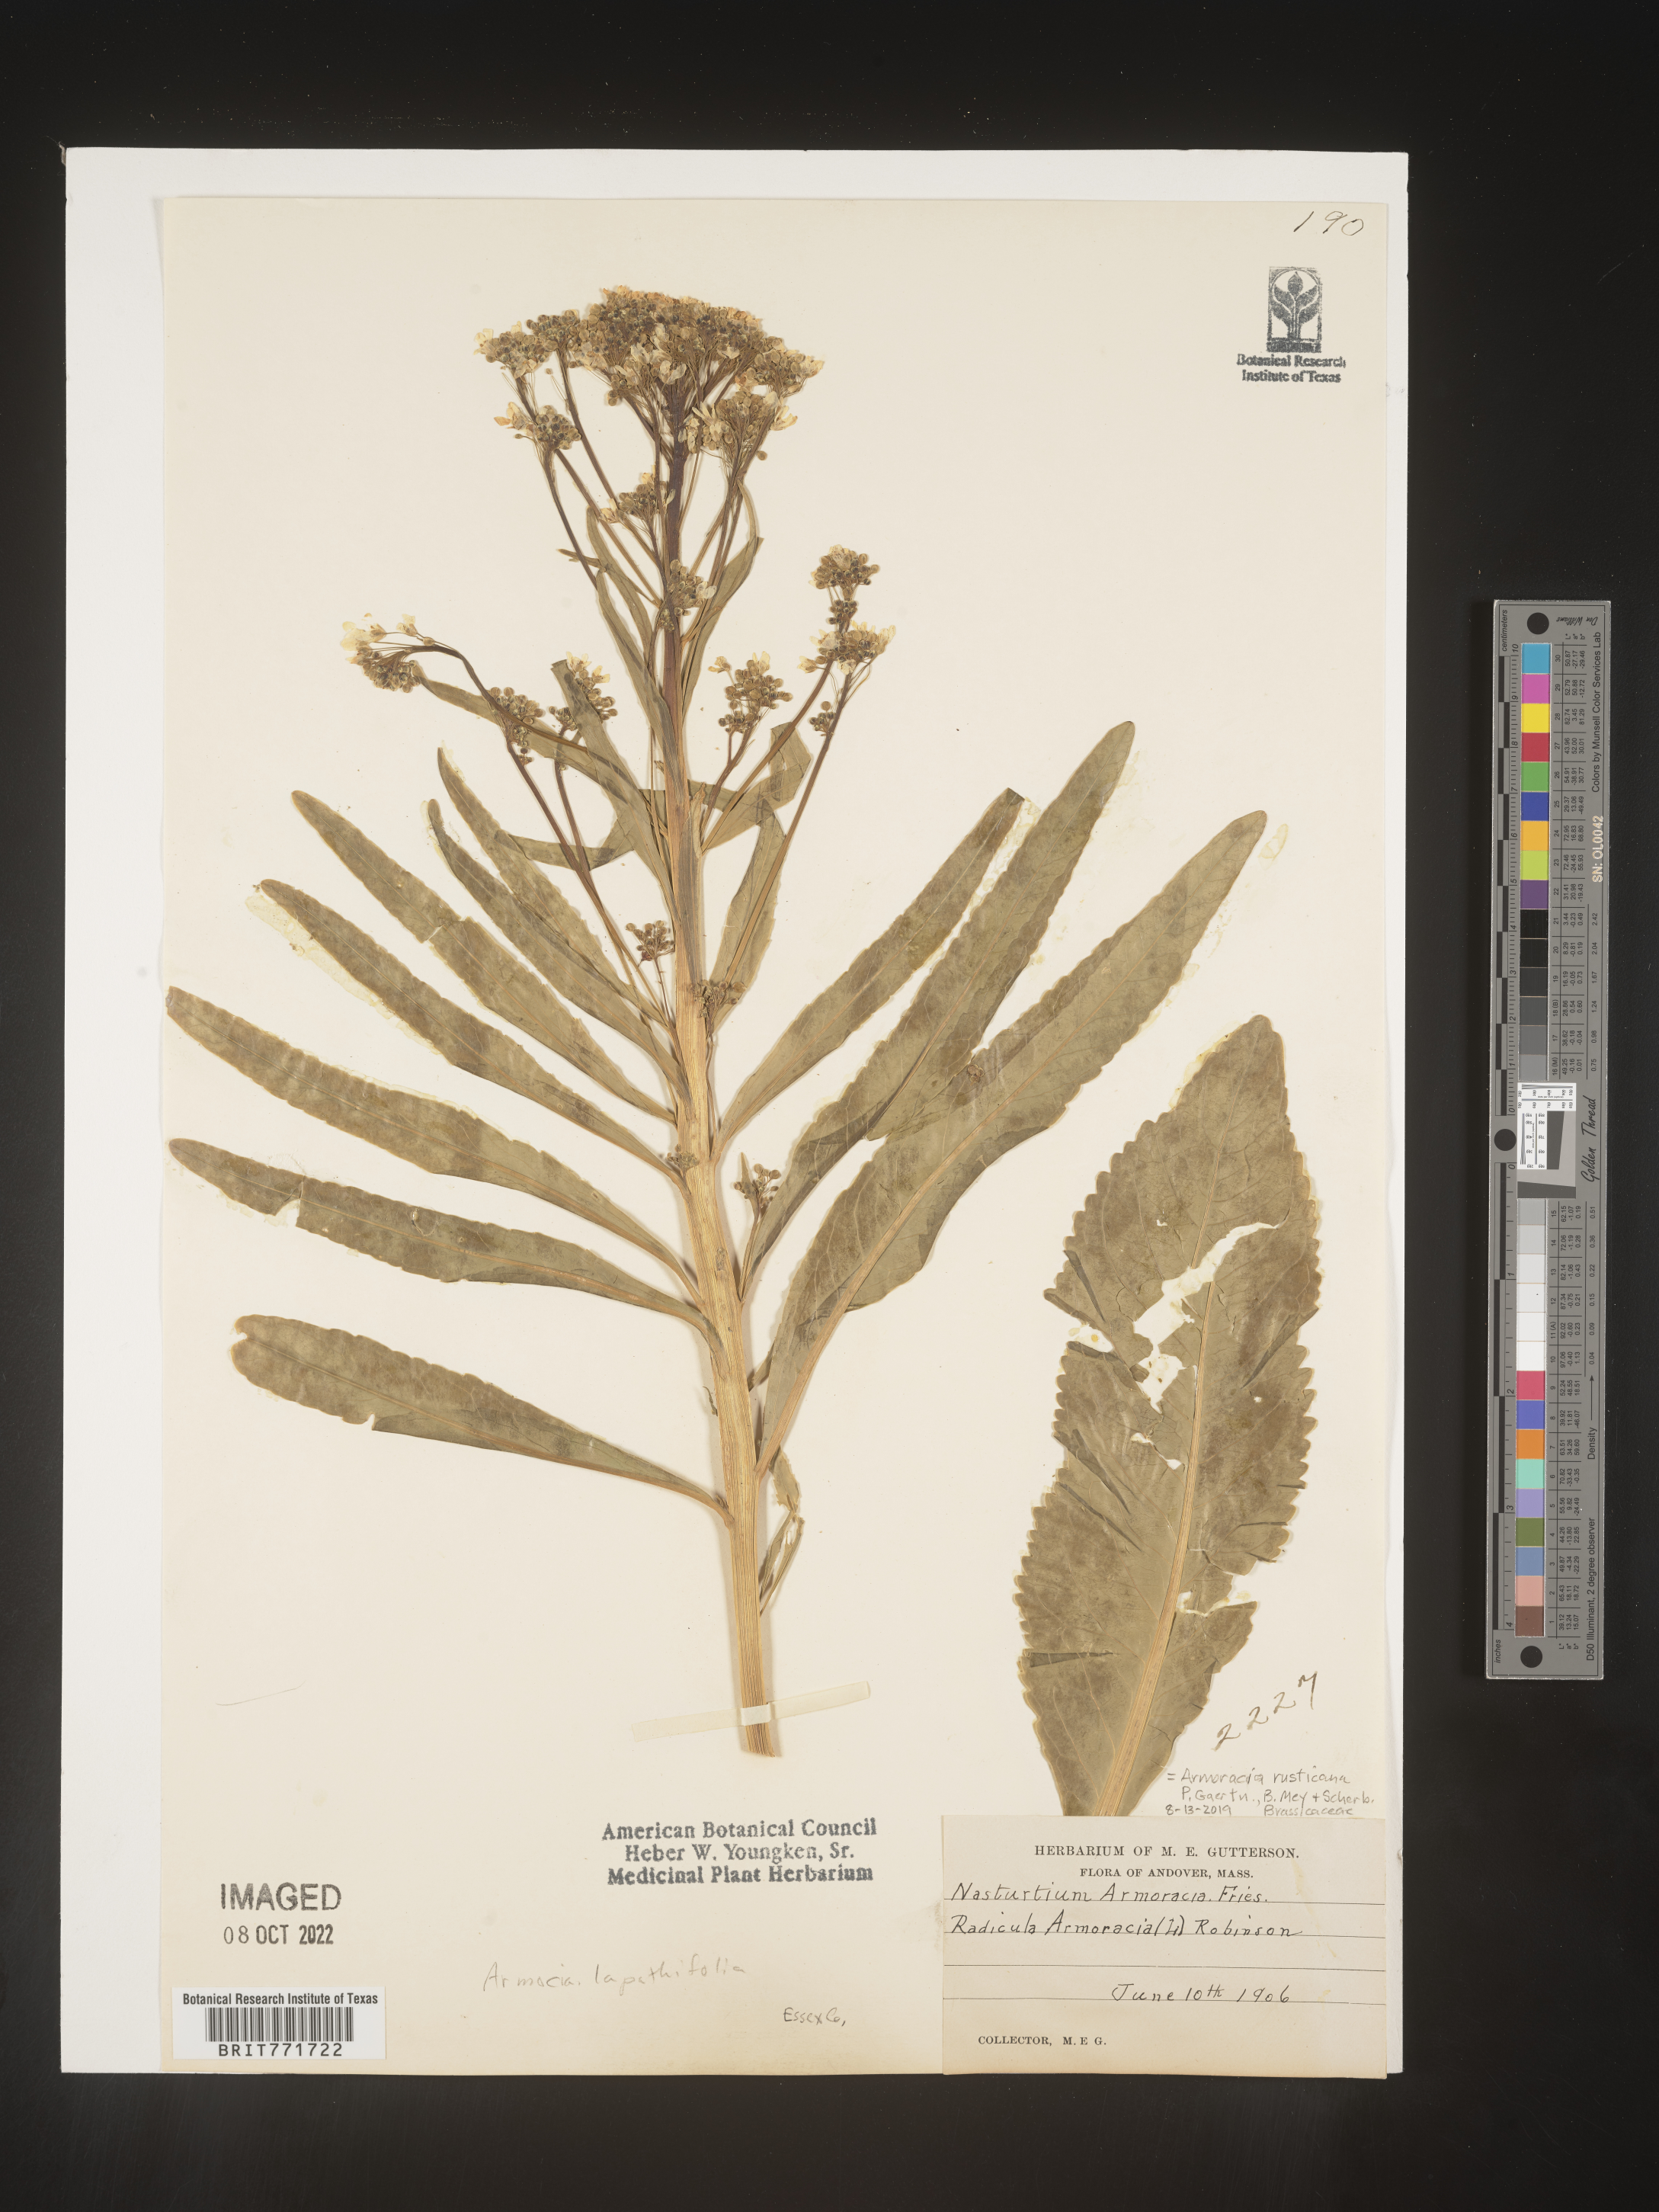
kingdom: Plantae
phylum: Tracheophyta
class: Magnoliopsida
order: Brassicales
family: Brassicaceae
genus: Armoracia
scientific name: Armoracia
